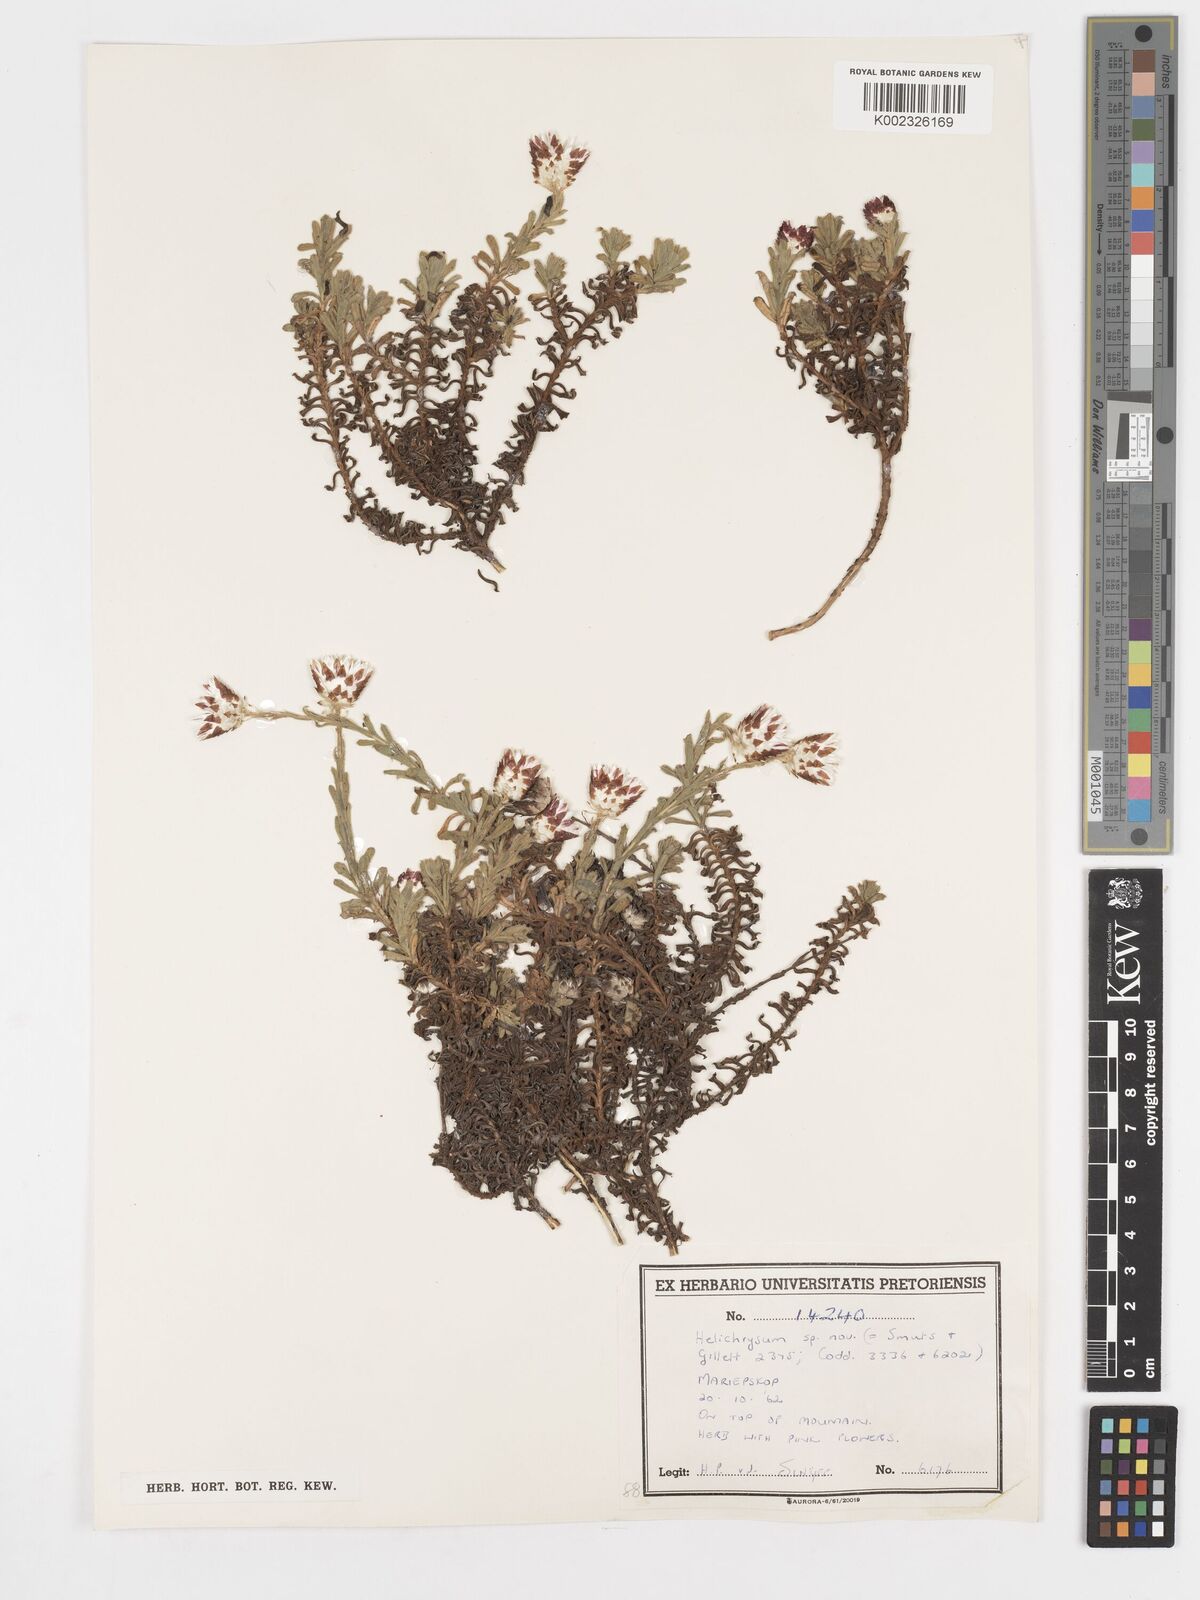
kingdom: Plantae
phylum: Tracheophyta
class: Magnoliopsida
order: Asterales
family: Asteraceae
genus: Helichrysum
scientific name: Helichrysum mariepscopicum
